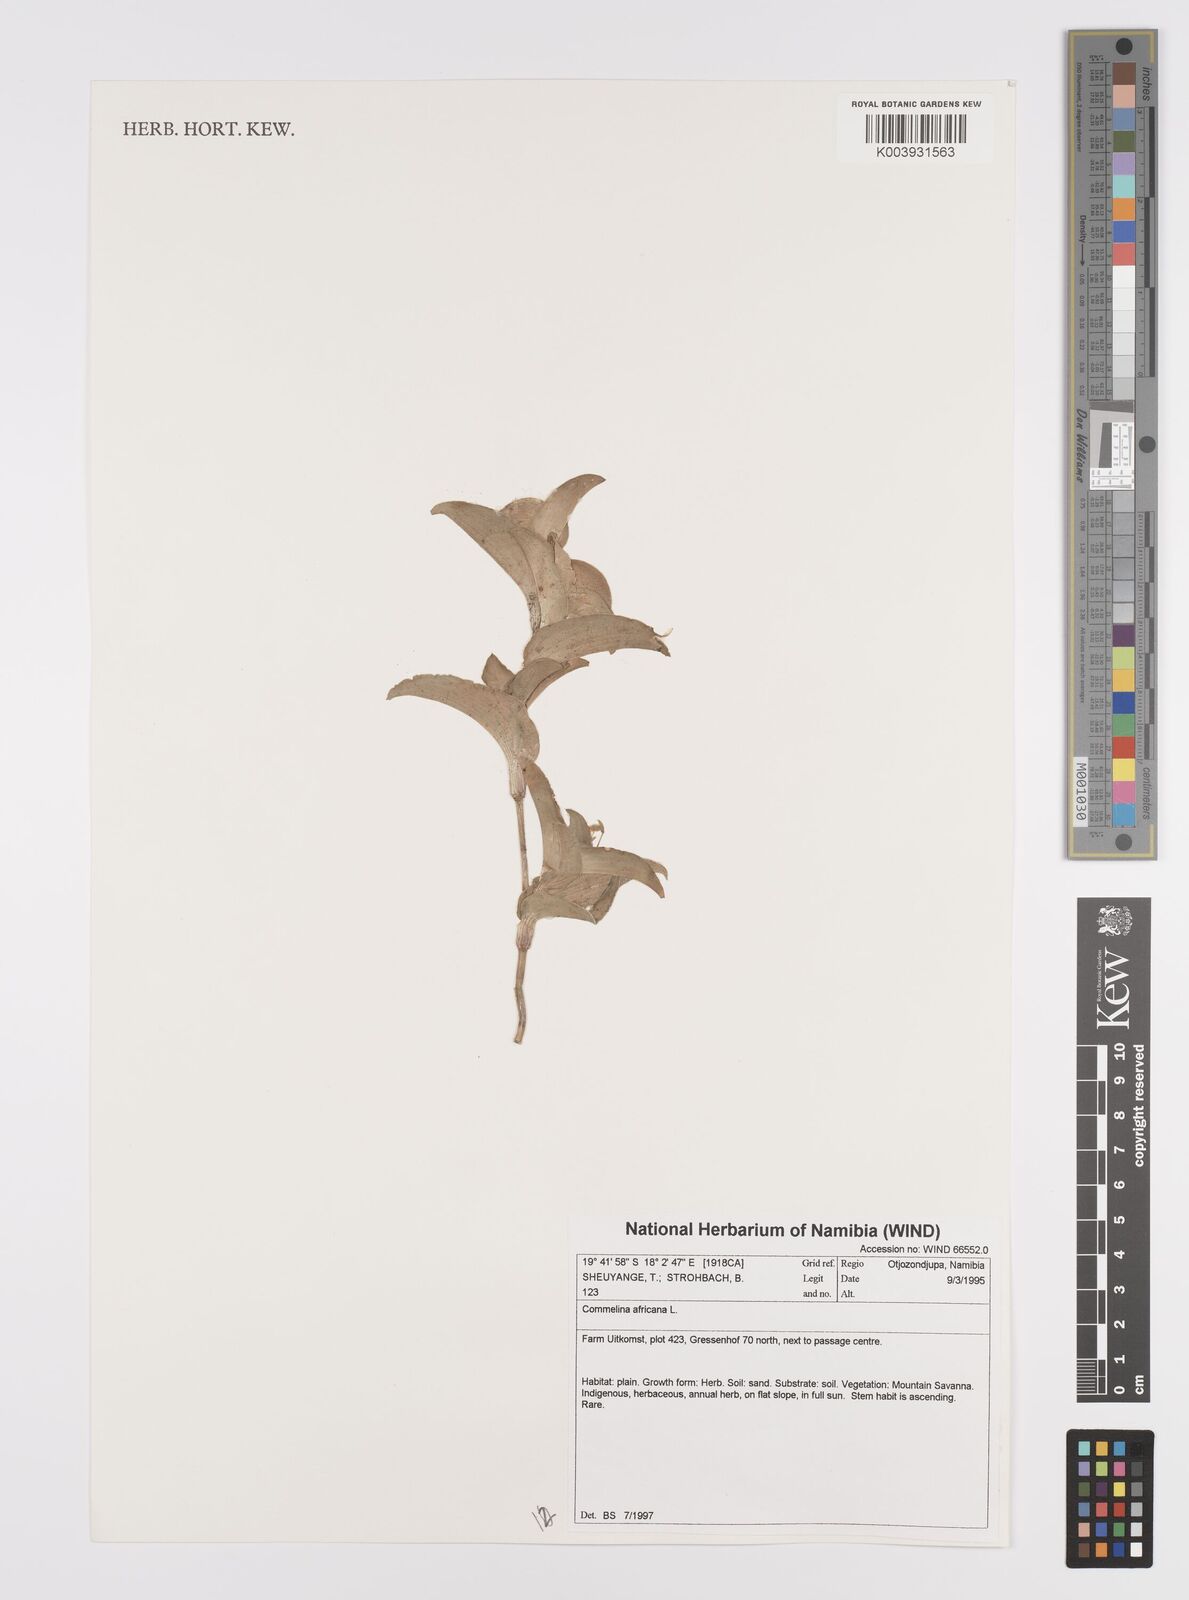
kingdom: Plantae
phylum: Tracheophyta
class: Liliopsida
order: Commelinales
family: Commelinaceae
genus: Commelina
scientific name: Commelina africana
